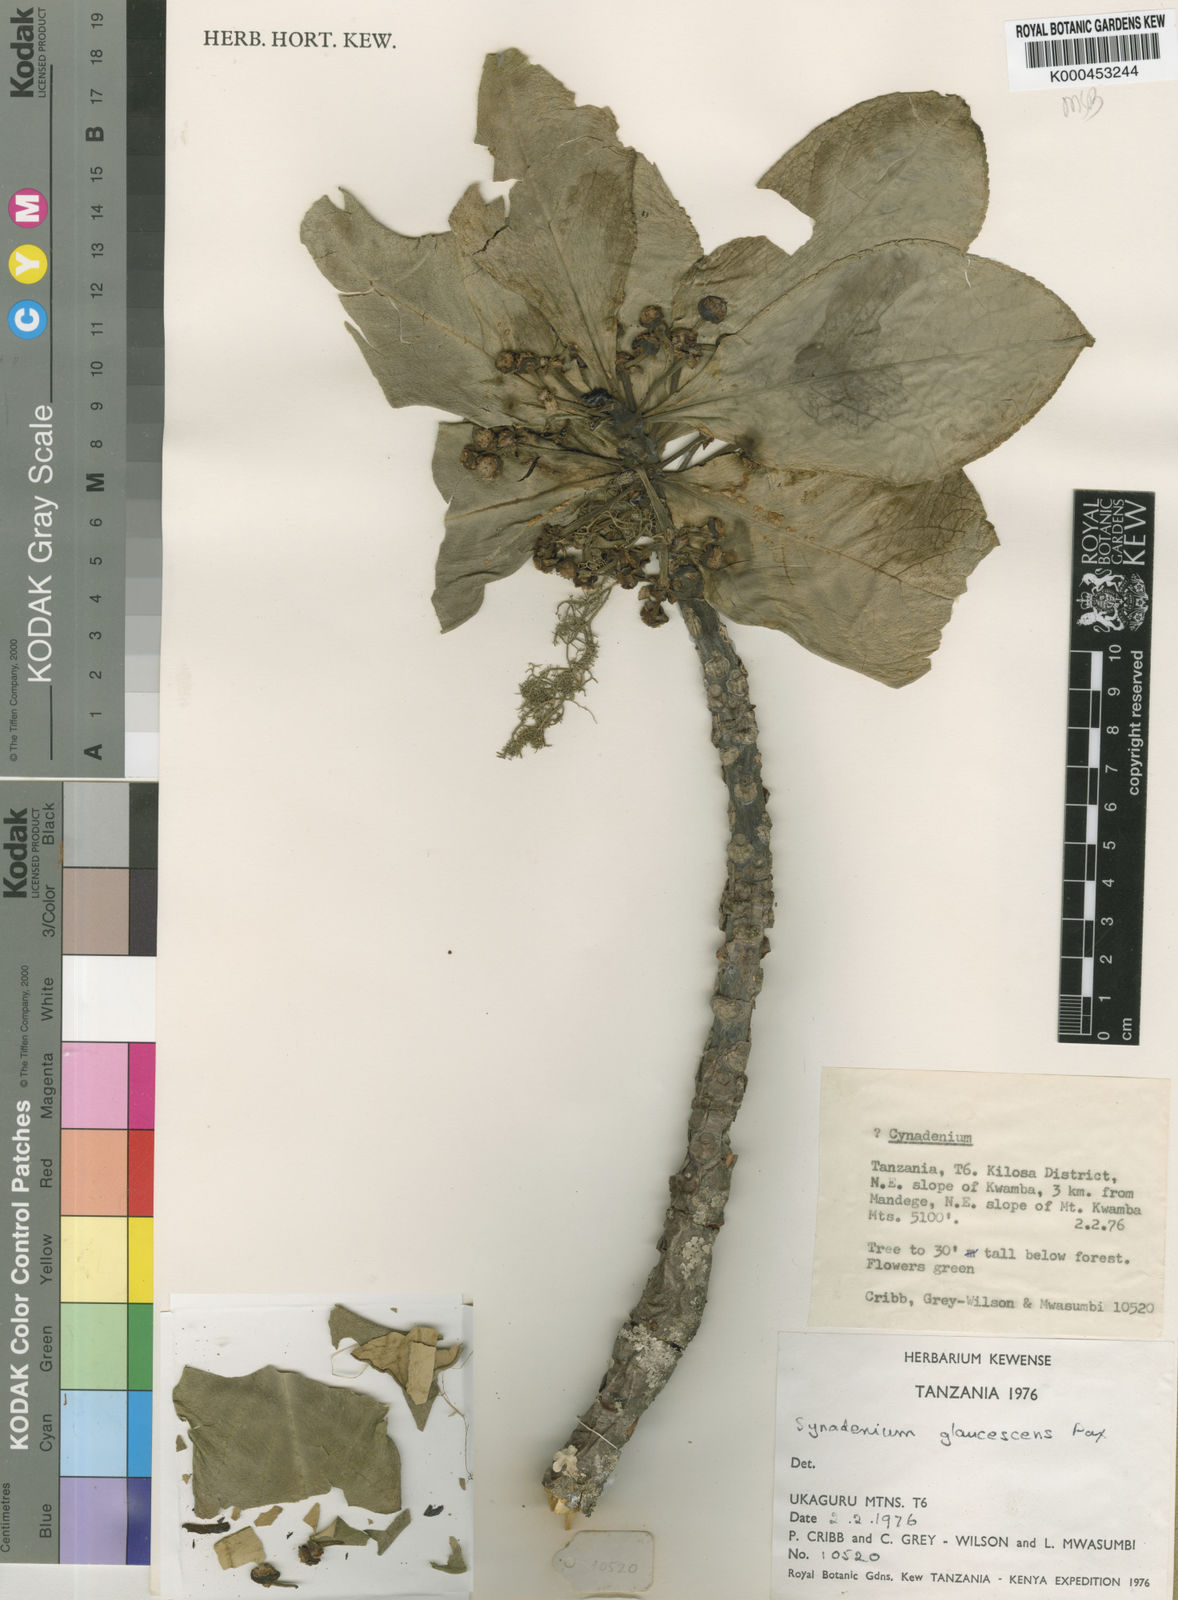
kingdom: Plantae
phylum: Tracheophyta
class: Magnoliopsida
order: Malpighiales
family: Euphorbiaceae
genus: Euphorbia
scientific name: Euphorbia neoglaucescens
